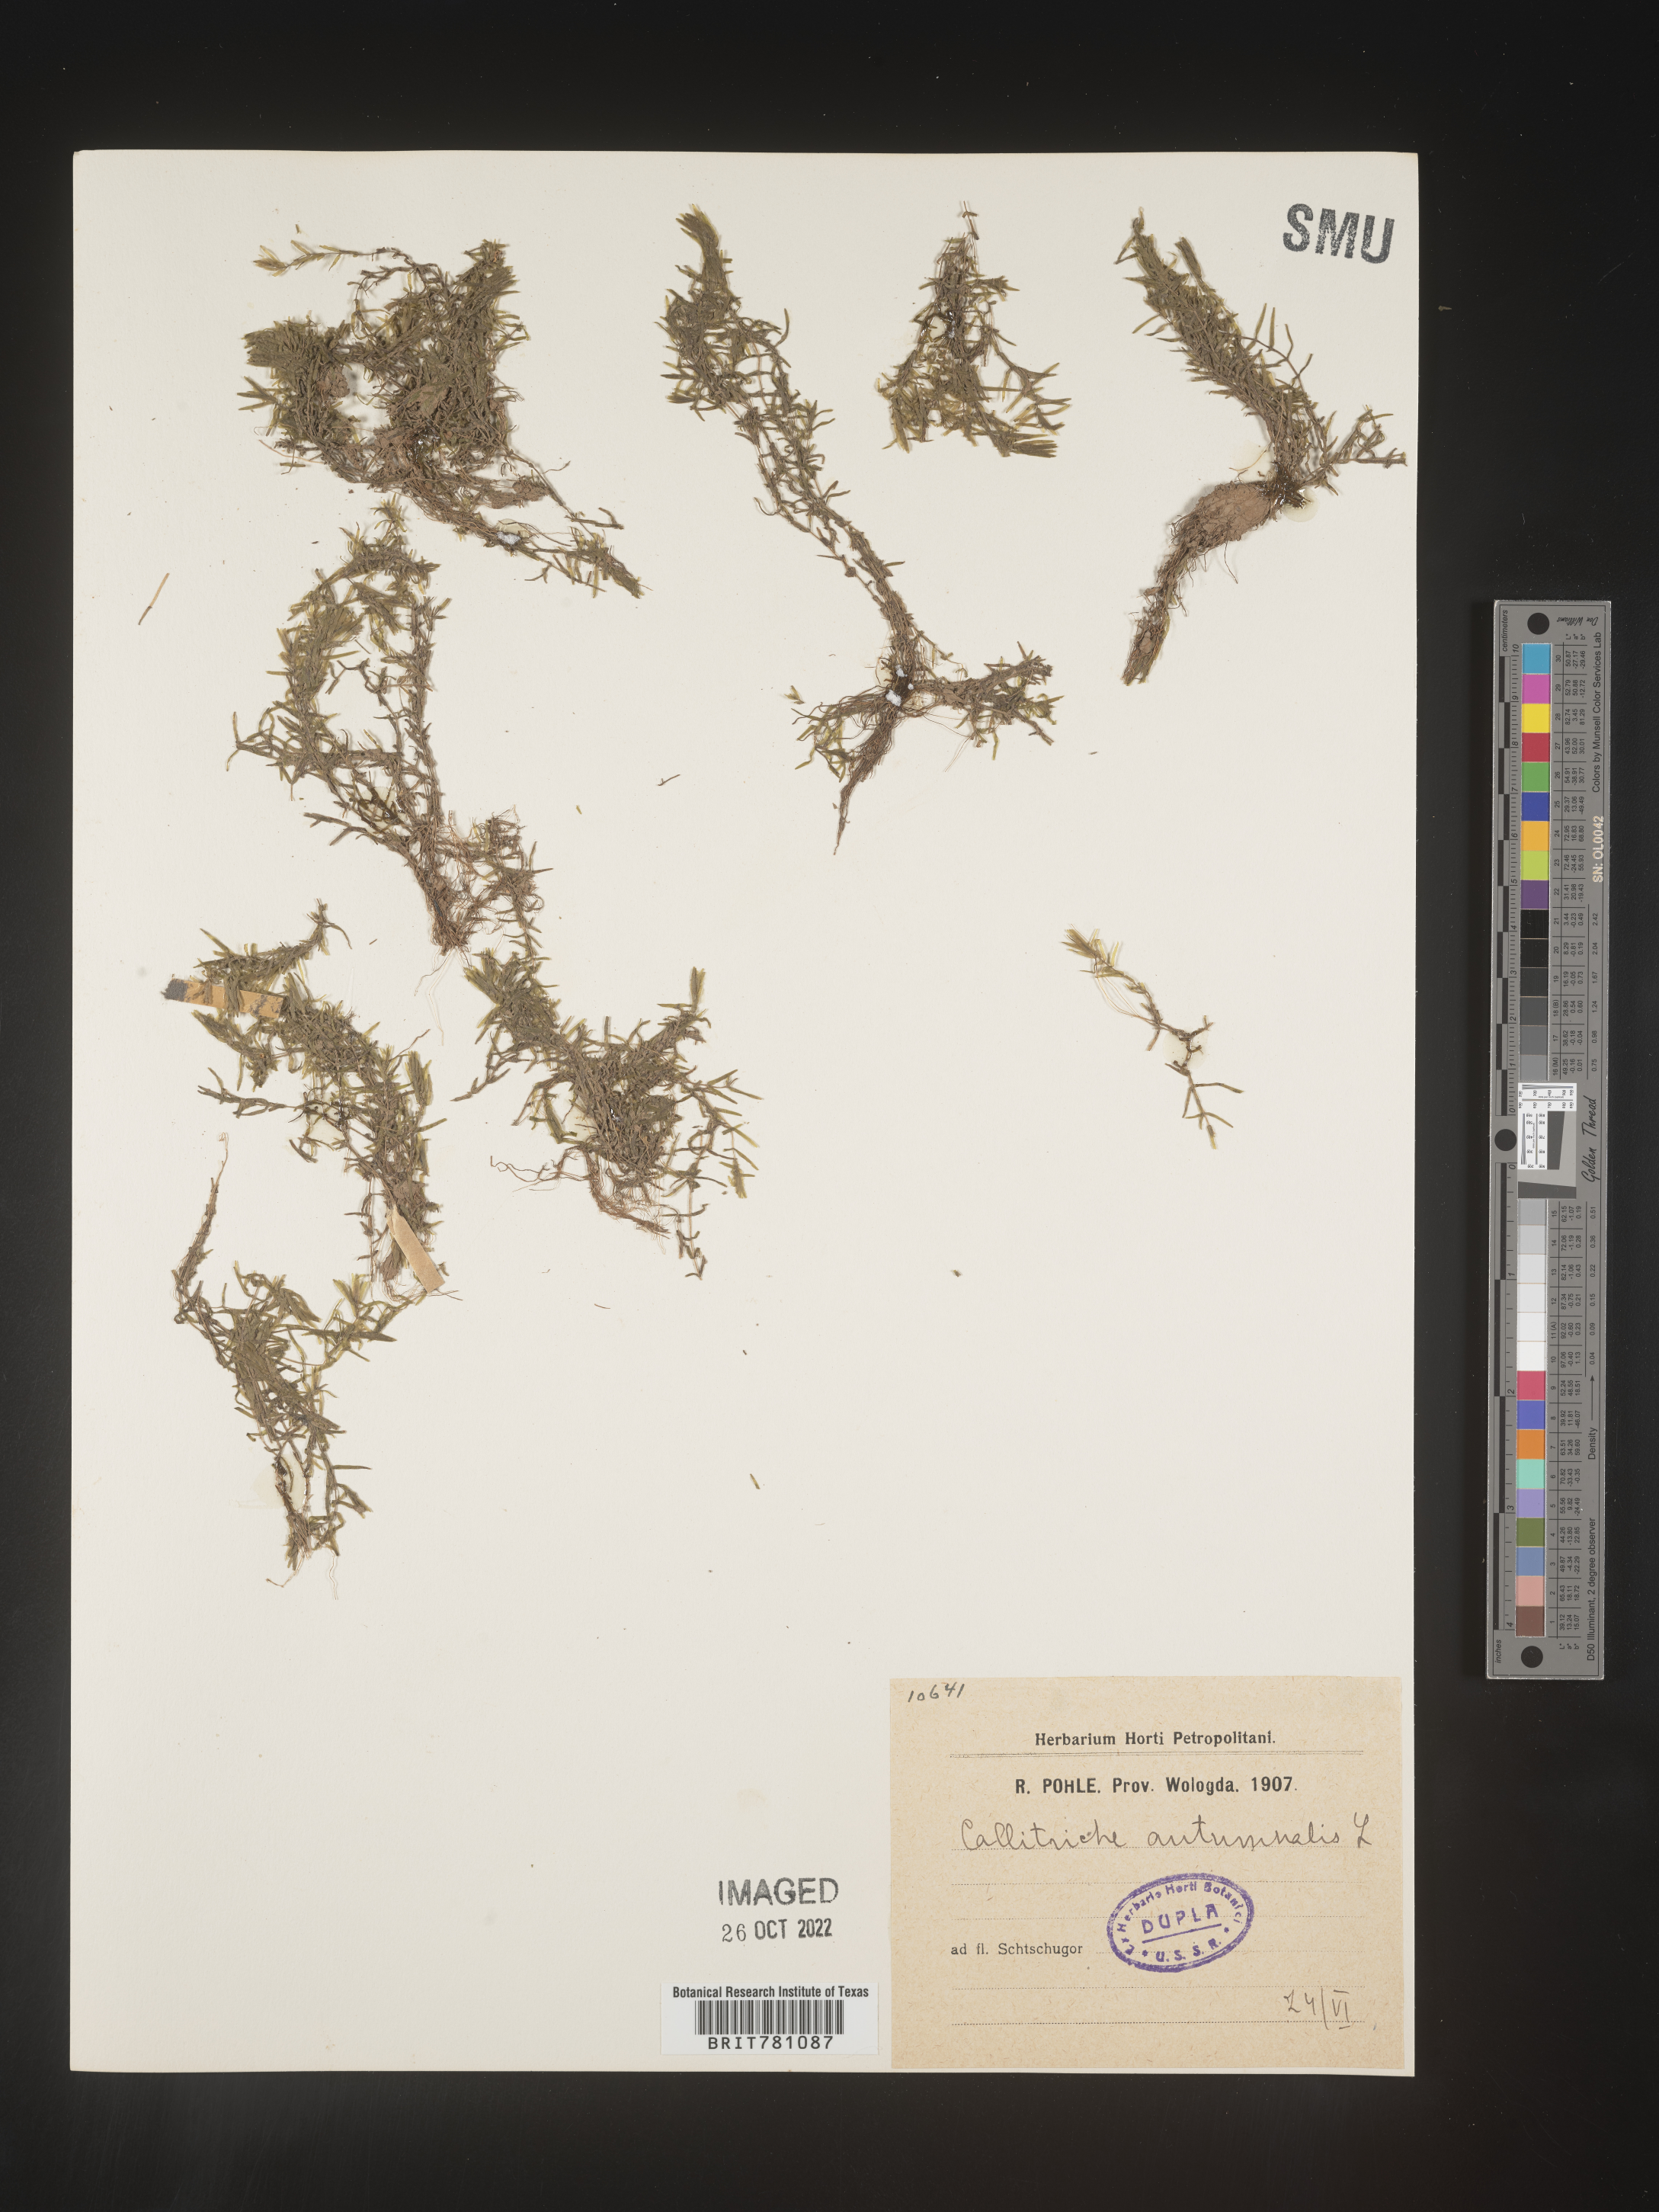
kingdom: Plantae
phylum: Tracheophyta
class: Magnoliopsida
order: Lamiales
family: Plantaginaceae
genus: Callitriche
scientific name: Callitriche
